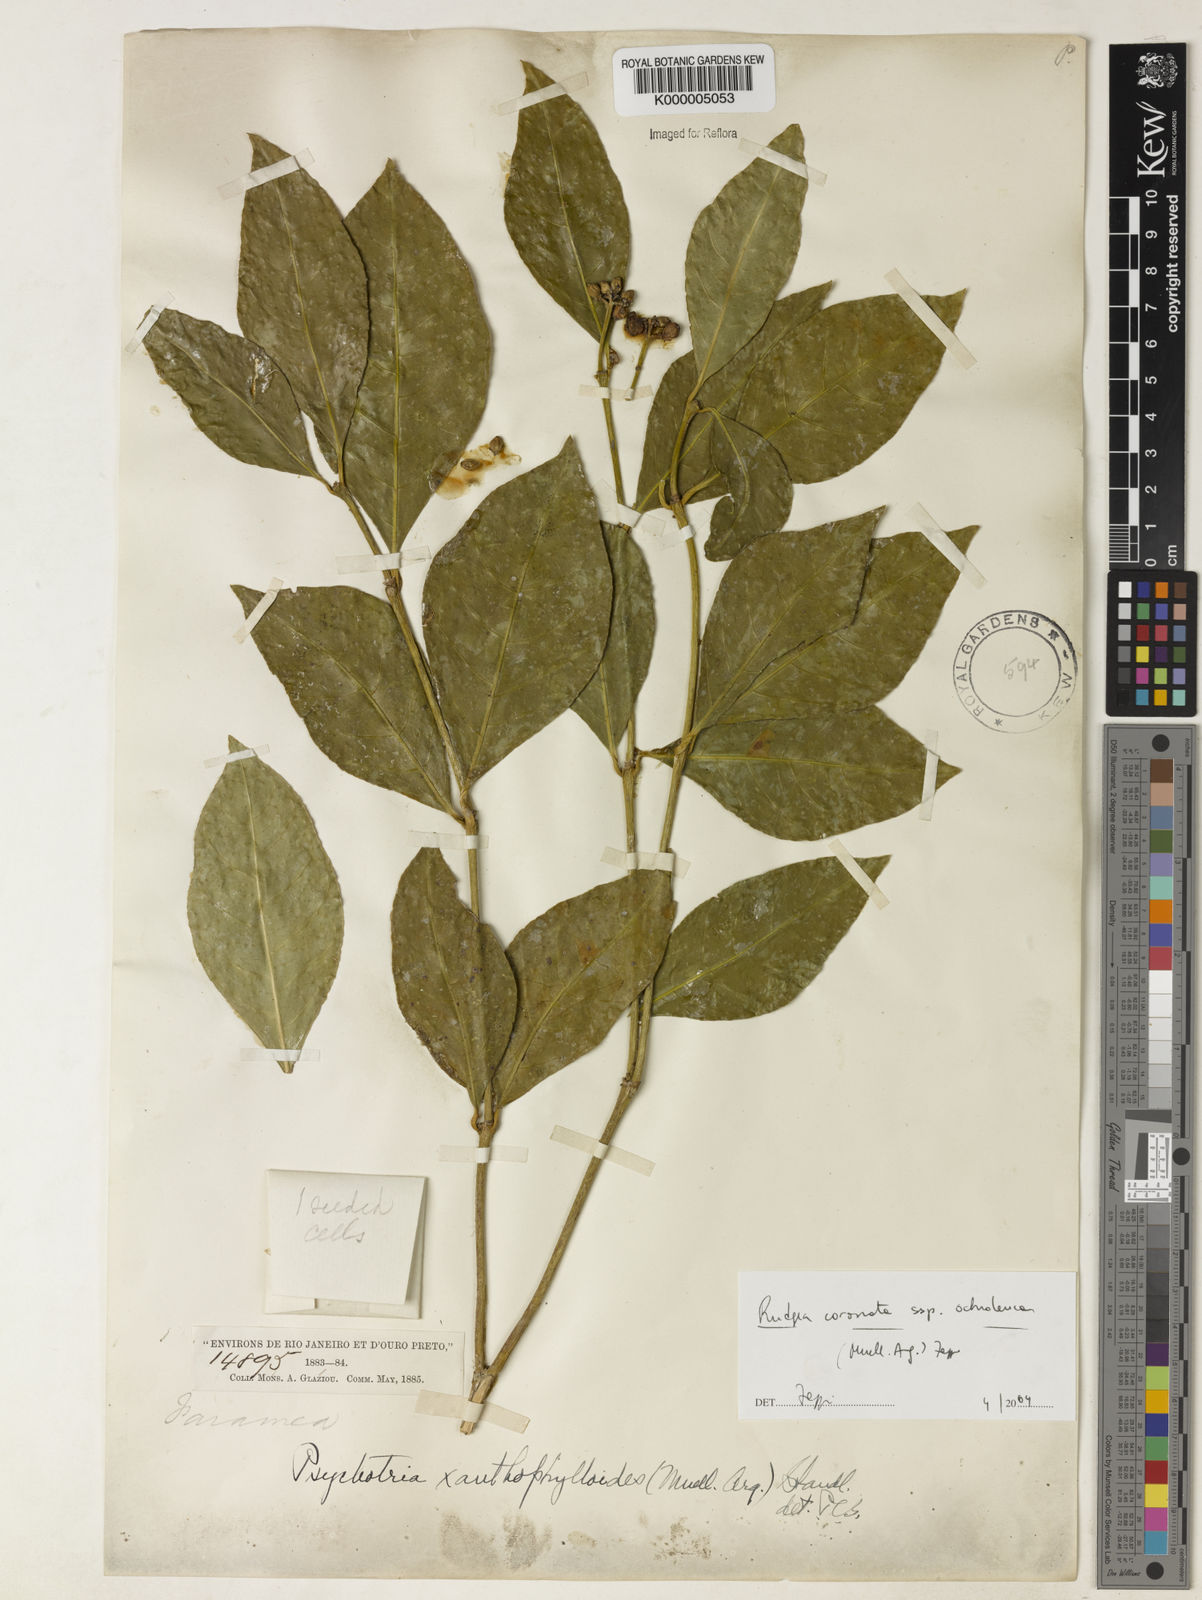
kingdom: Plantae
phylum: Tracheophyta
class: Magnoliopsida
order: Gentianales
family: Rubiaceae
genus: Rudgea
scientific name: Rudgea coronata
